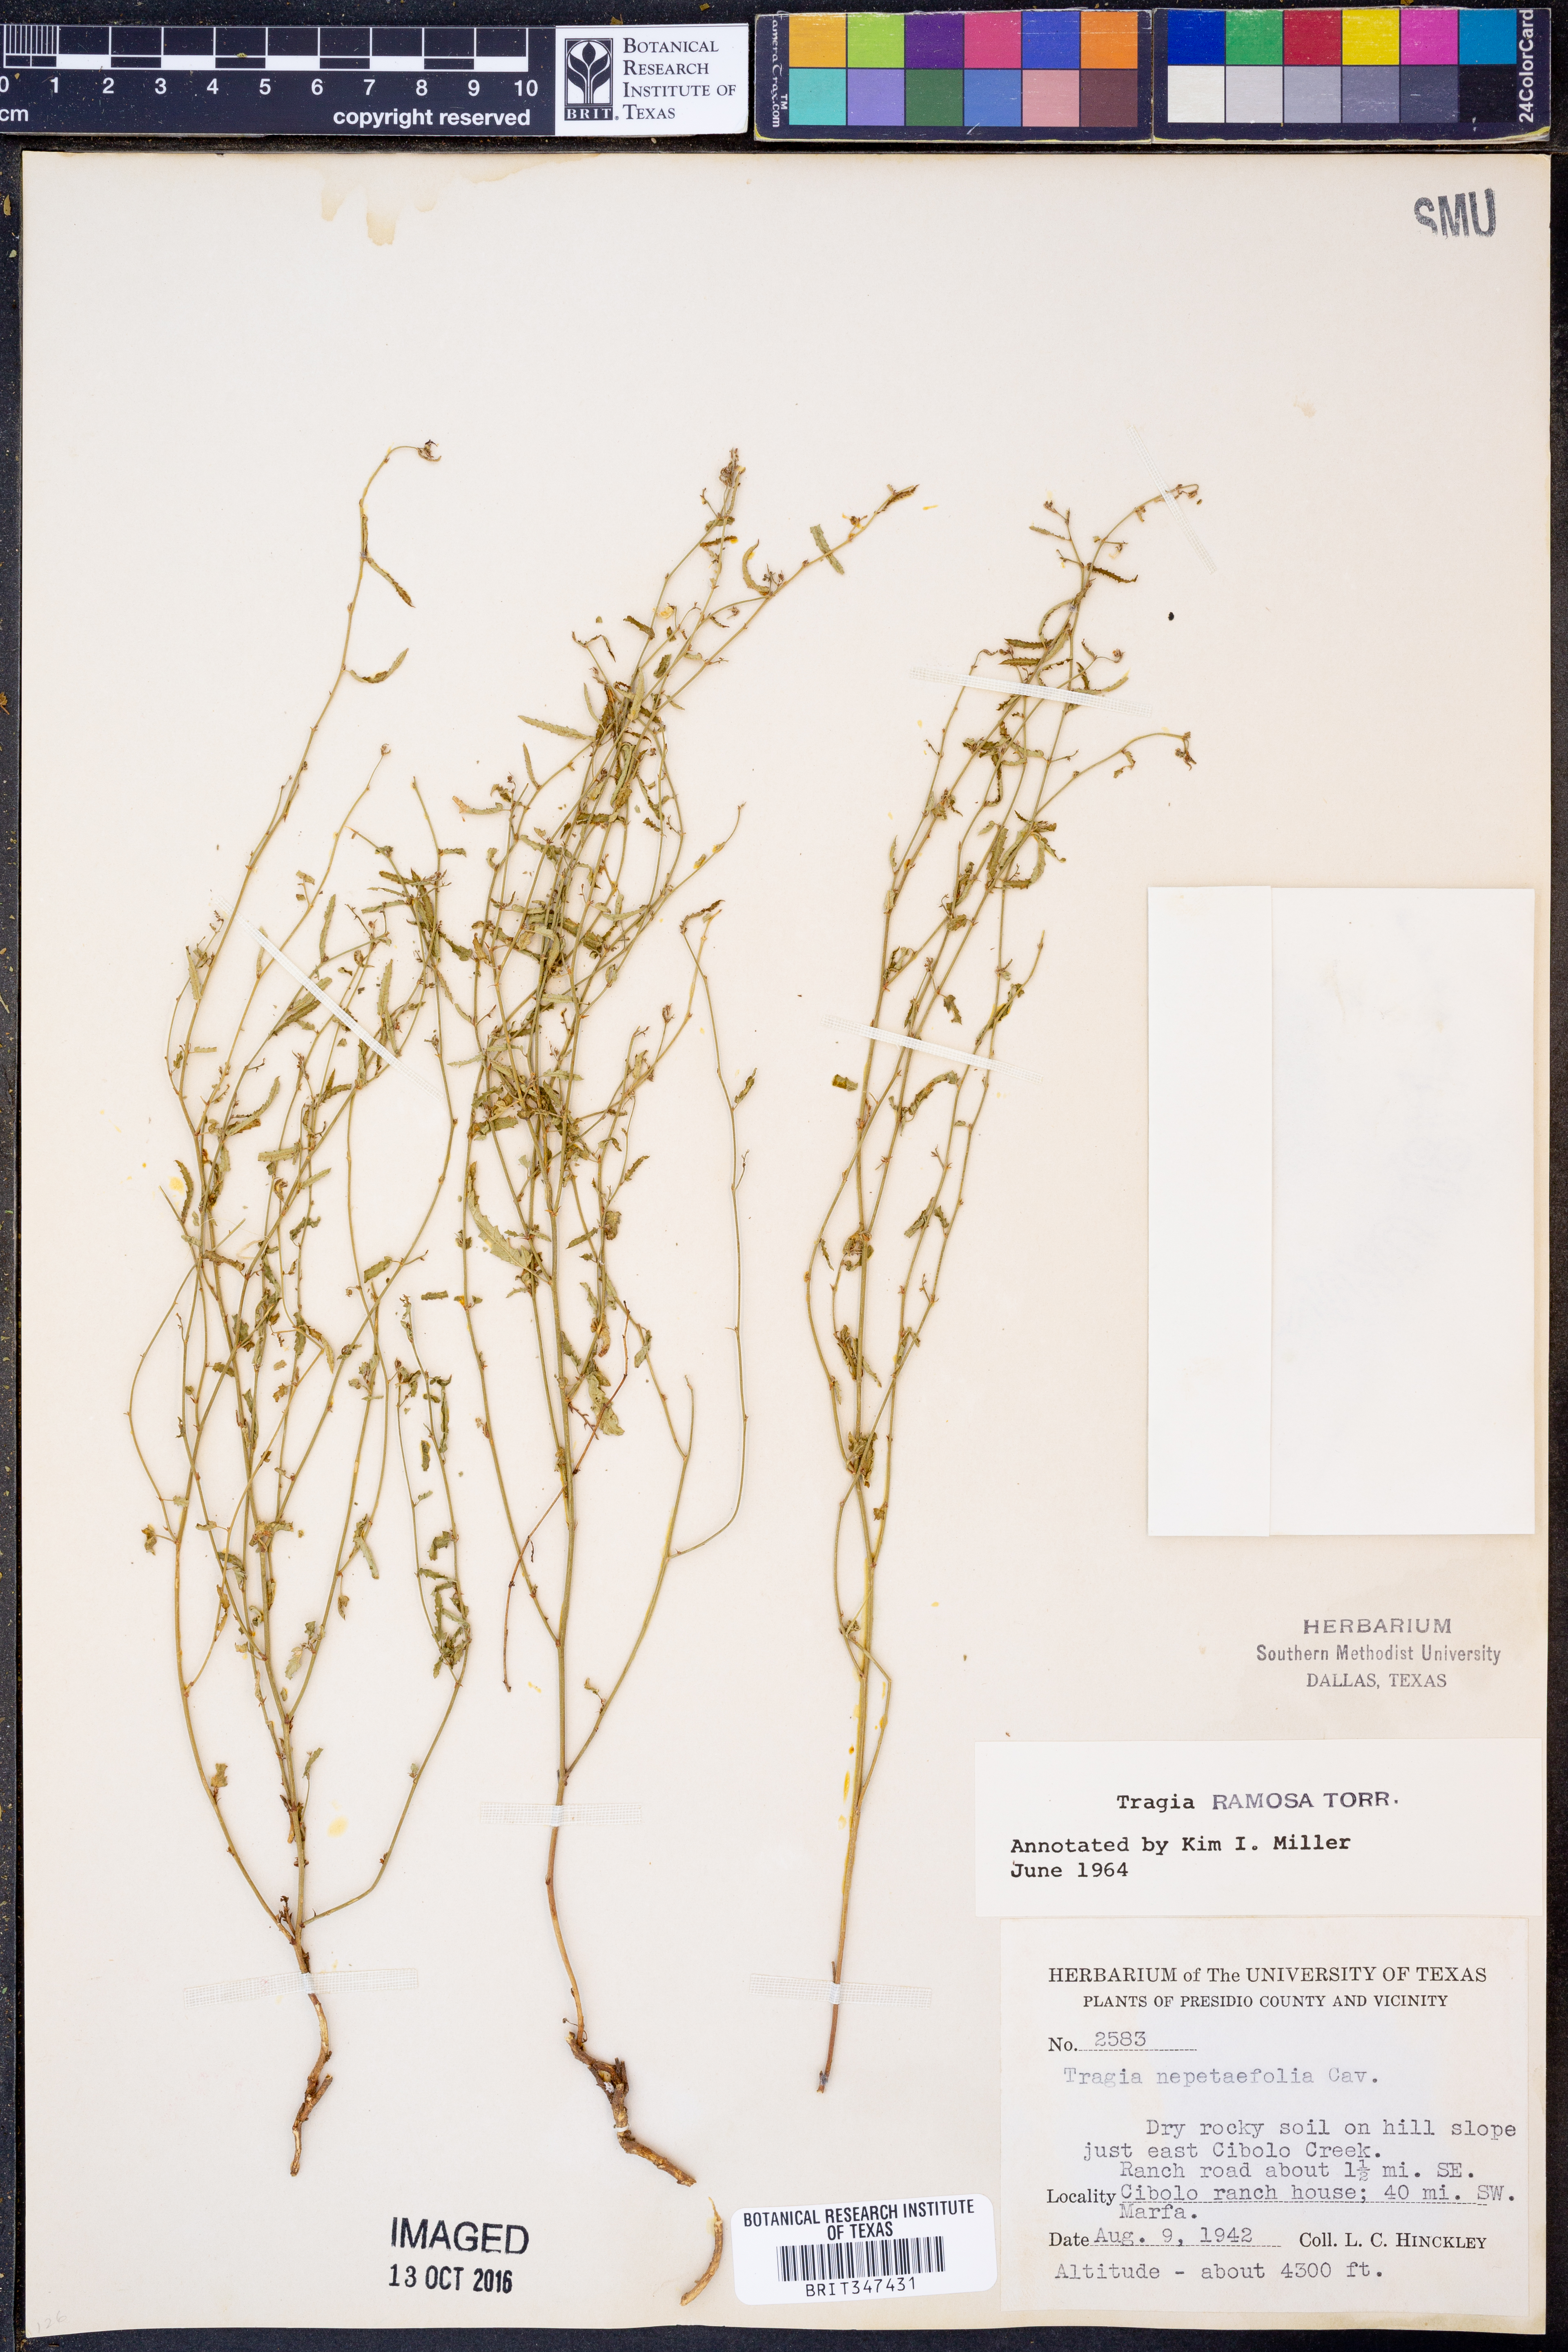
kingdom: Plantae
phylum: Tracheophyta
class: Magnoliopsida
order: Malpighiales
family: Euphorbiaceae
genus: Tragia
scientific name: Tragia ramosa
